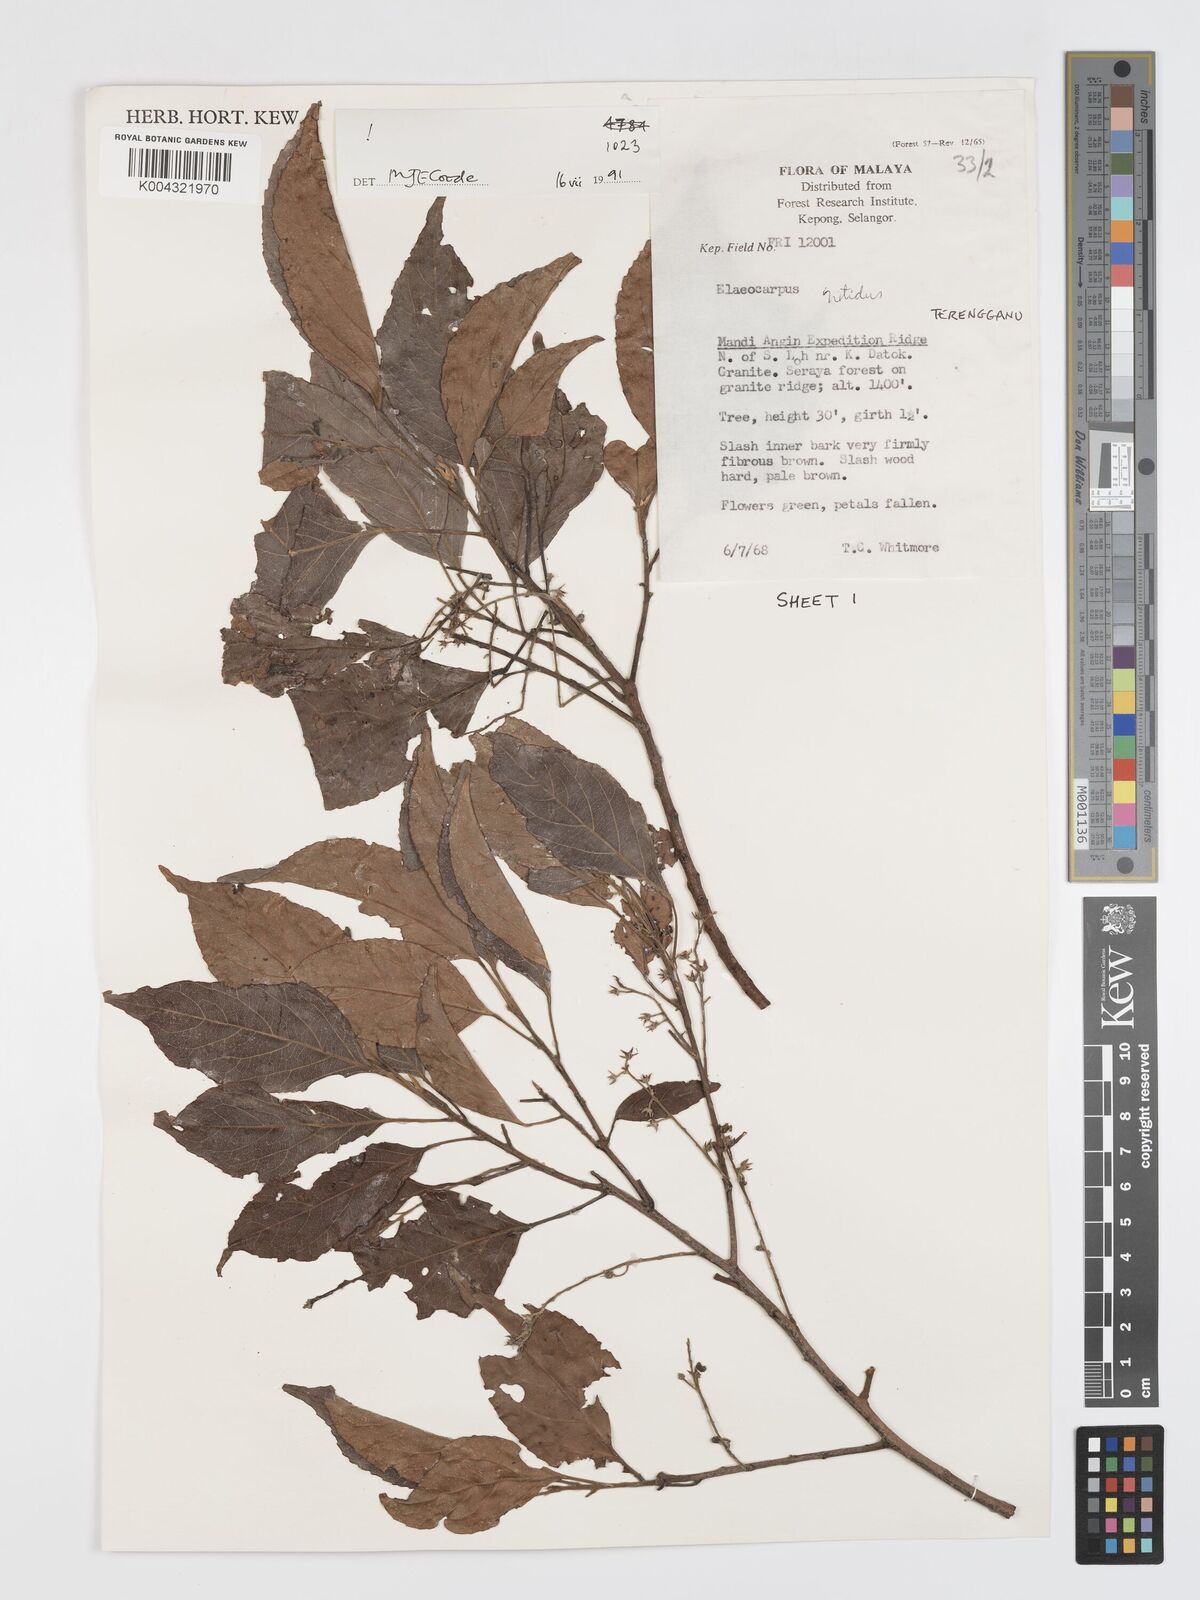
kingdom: Plantae
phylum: Tracheophyta
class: Magnoliopsida
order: Oxalidales
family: Elaeocarpaceae
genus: Elaeocarpus
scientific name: Elaeocarpus nitidus
